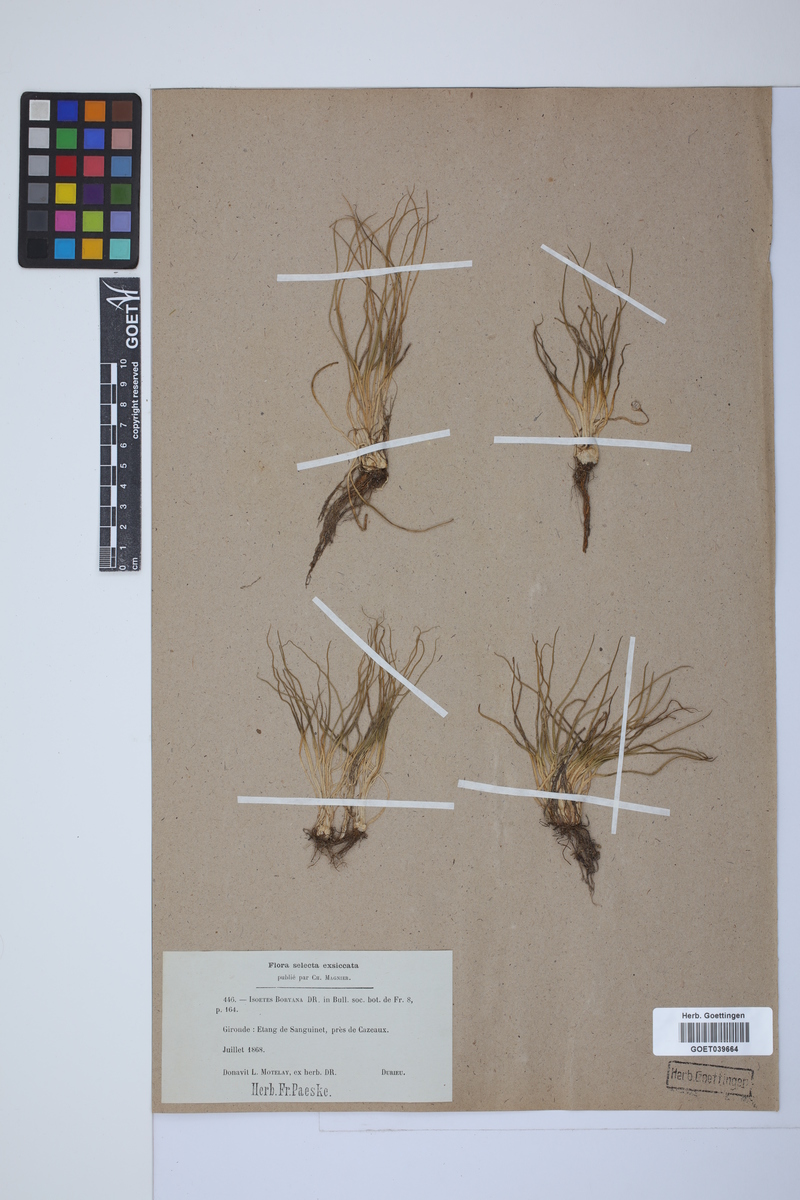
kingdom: Plantae
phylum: Tracheophyta
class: Lycopodiopsida
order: Isoetales
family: Isoetaceae
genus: Isoetes
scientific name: Isoetes boryana
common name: Gascoyne quillwort
